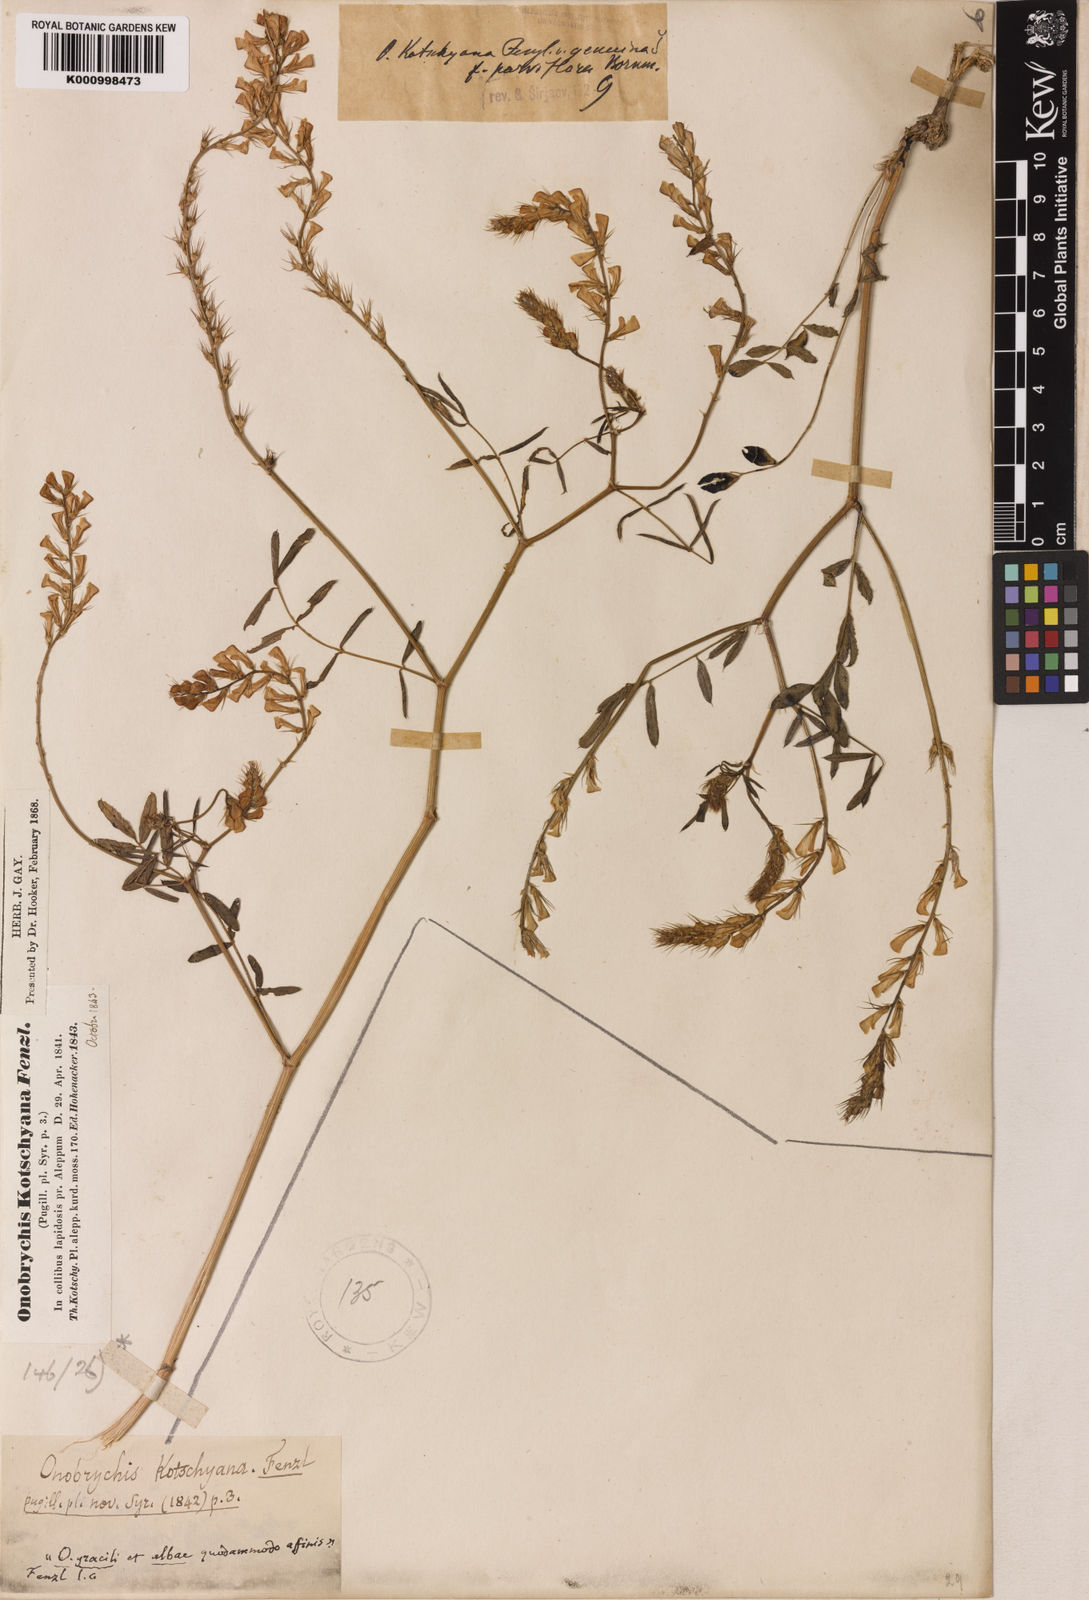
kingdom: Plantae
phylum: Tracheophyta
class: Magnoliopsida
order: Fabales
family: Fabaceae
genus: Onobrychis
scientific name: Onobrychis kotschyana
